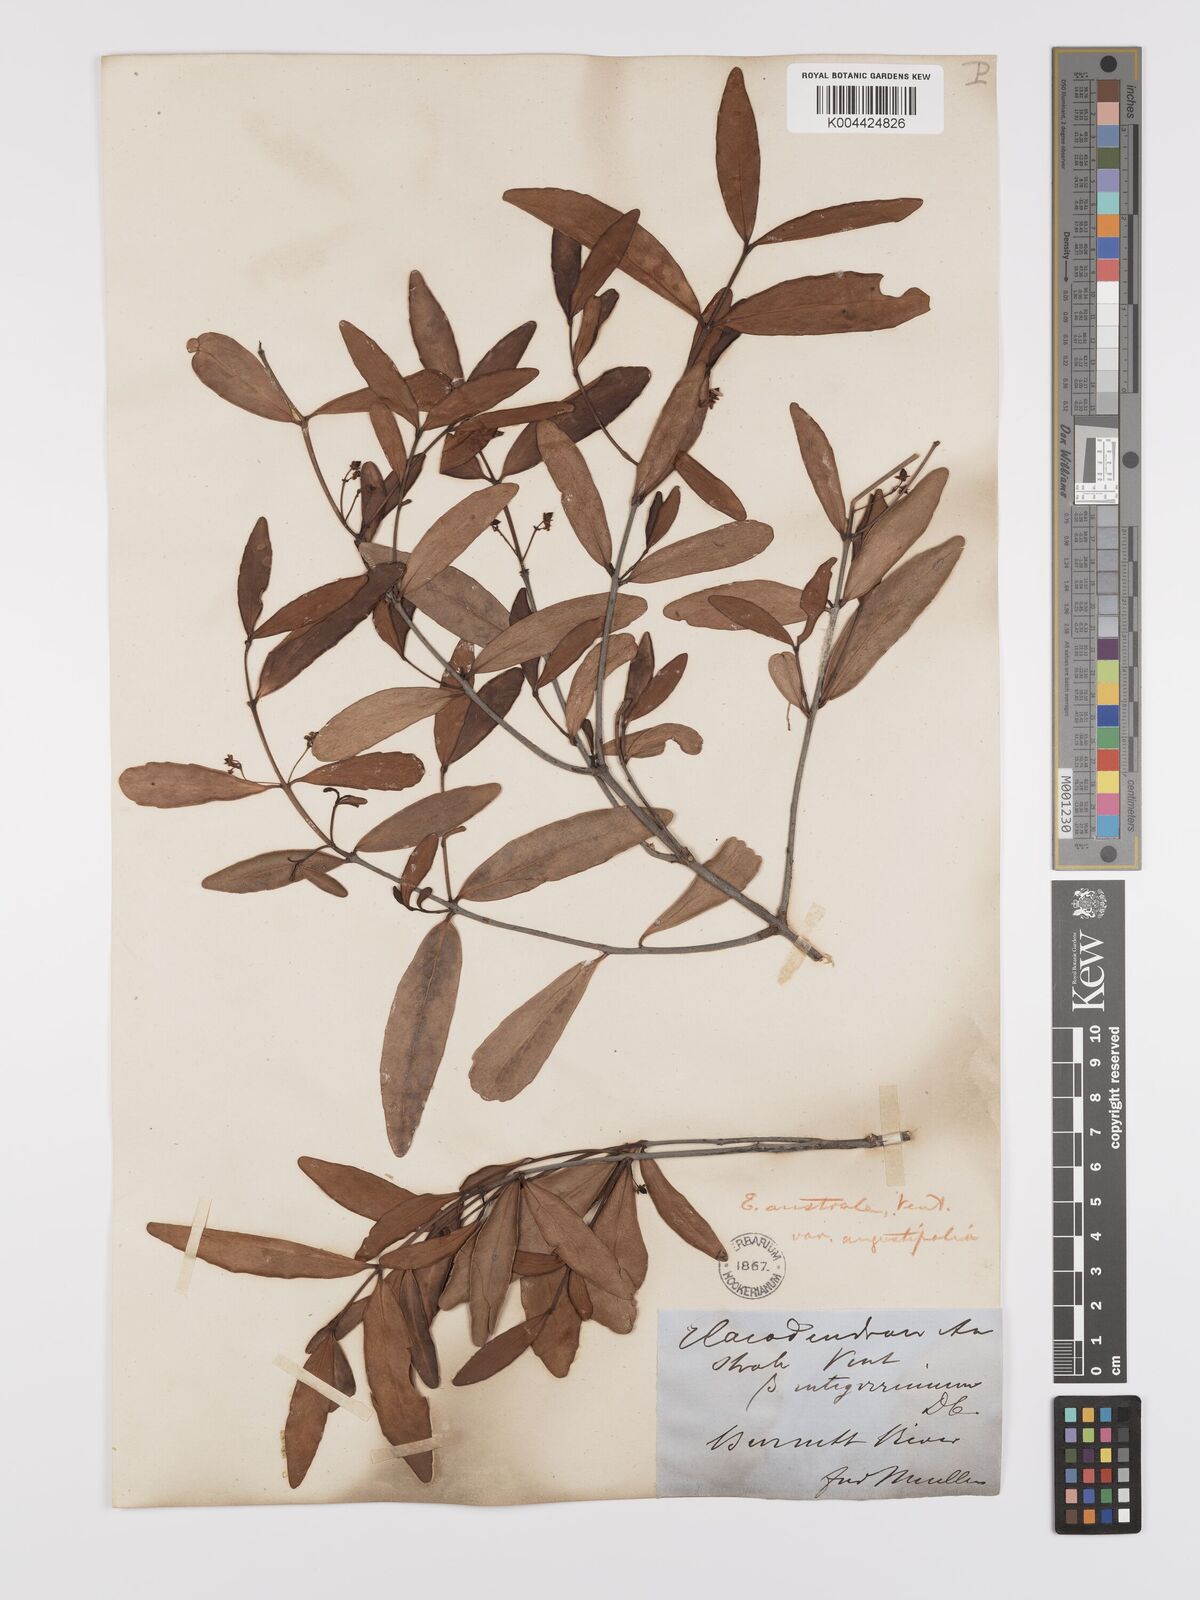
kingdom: Plantae
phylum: Tracheophyta
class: Magnoliopsida
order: Celastrales
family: Celastraceae
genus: Elaeodendron
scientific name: Elaeodendron australe
